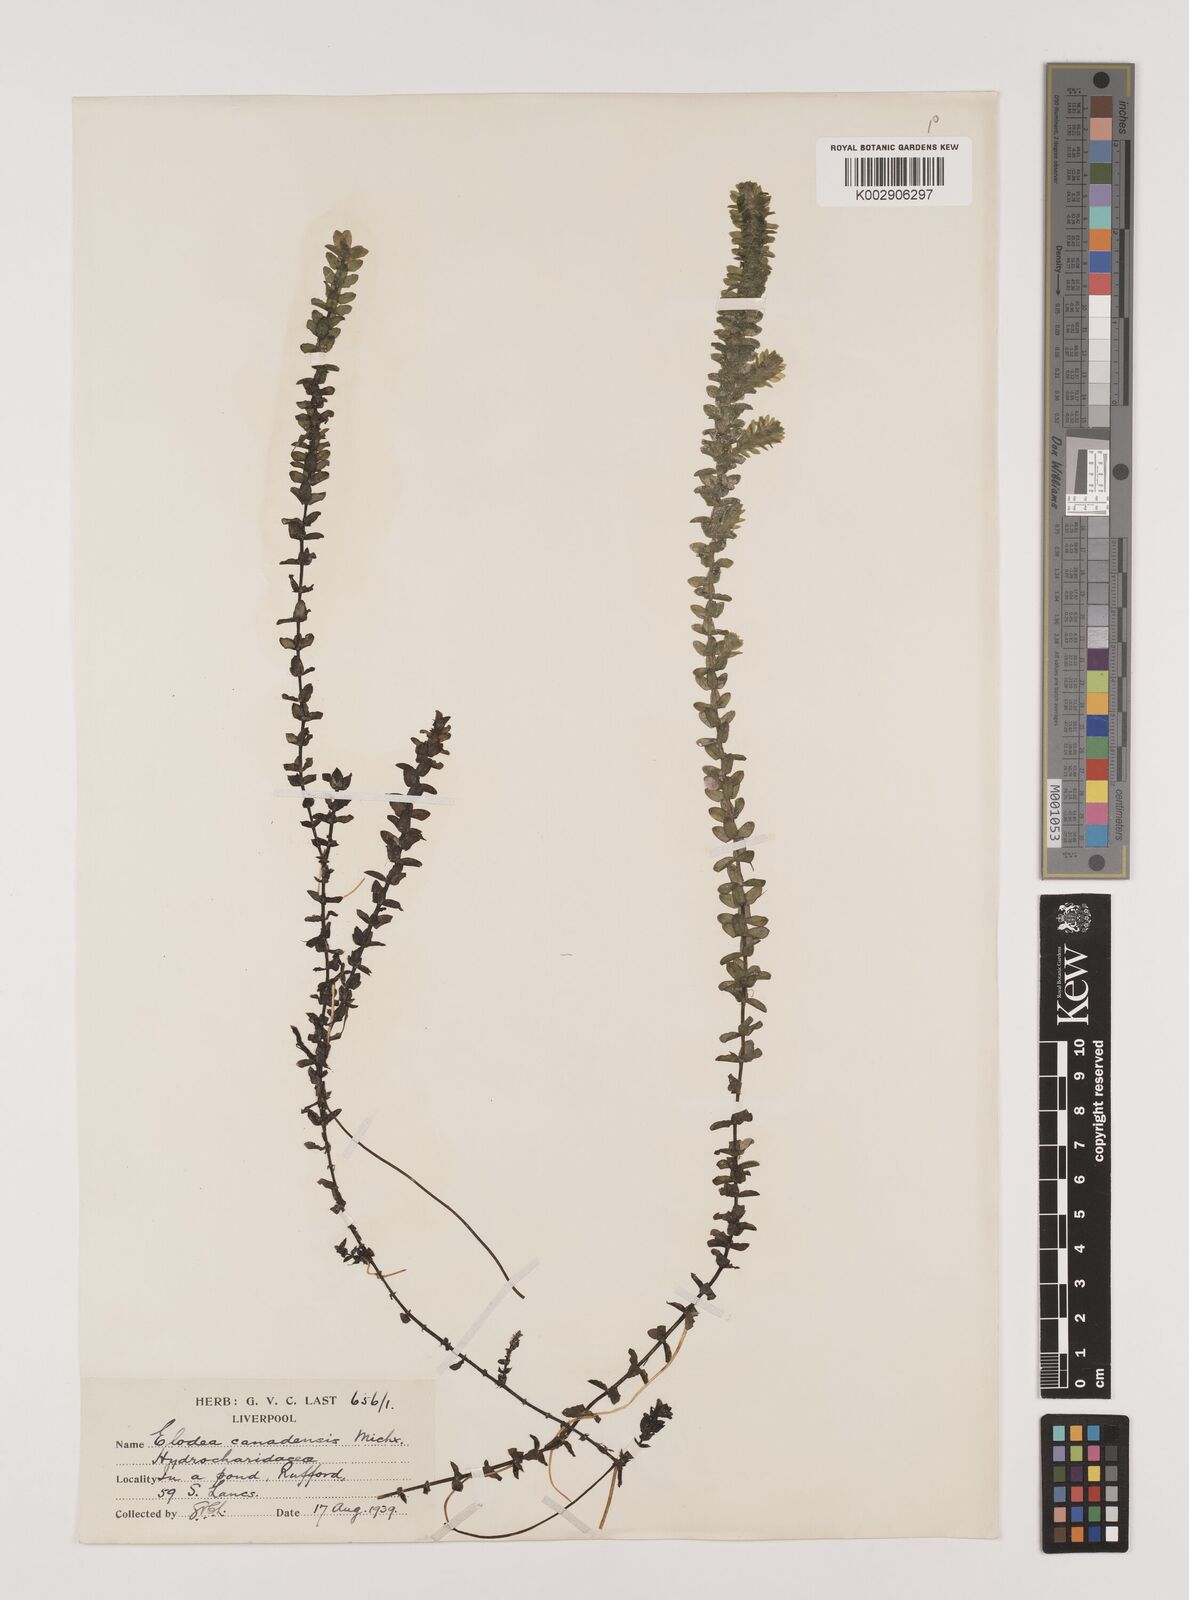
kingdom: Plantae
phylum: Tracheophyta
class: Liliopsida
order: Alismatales
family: Hydrocharitaceae
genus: Elodea
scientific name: Elodea canadensis
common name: Canadian waterweed
